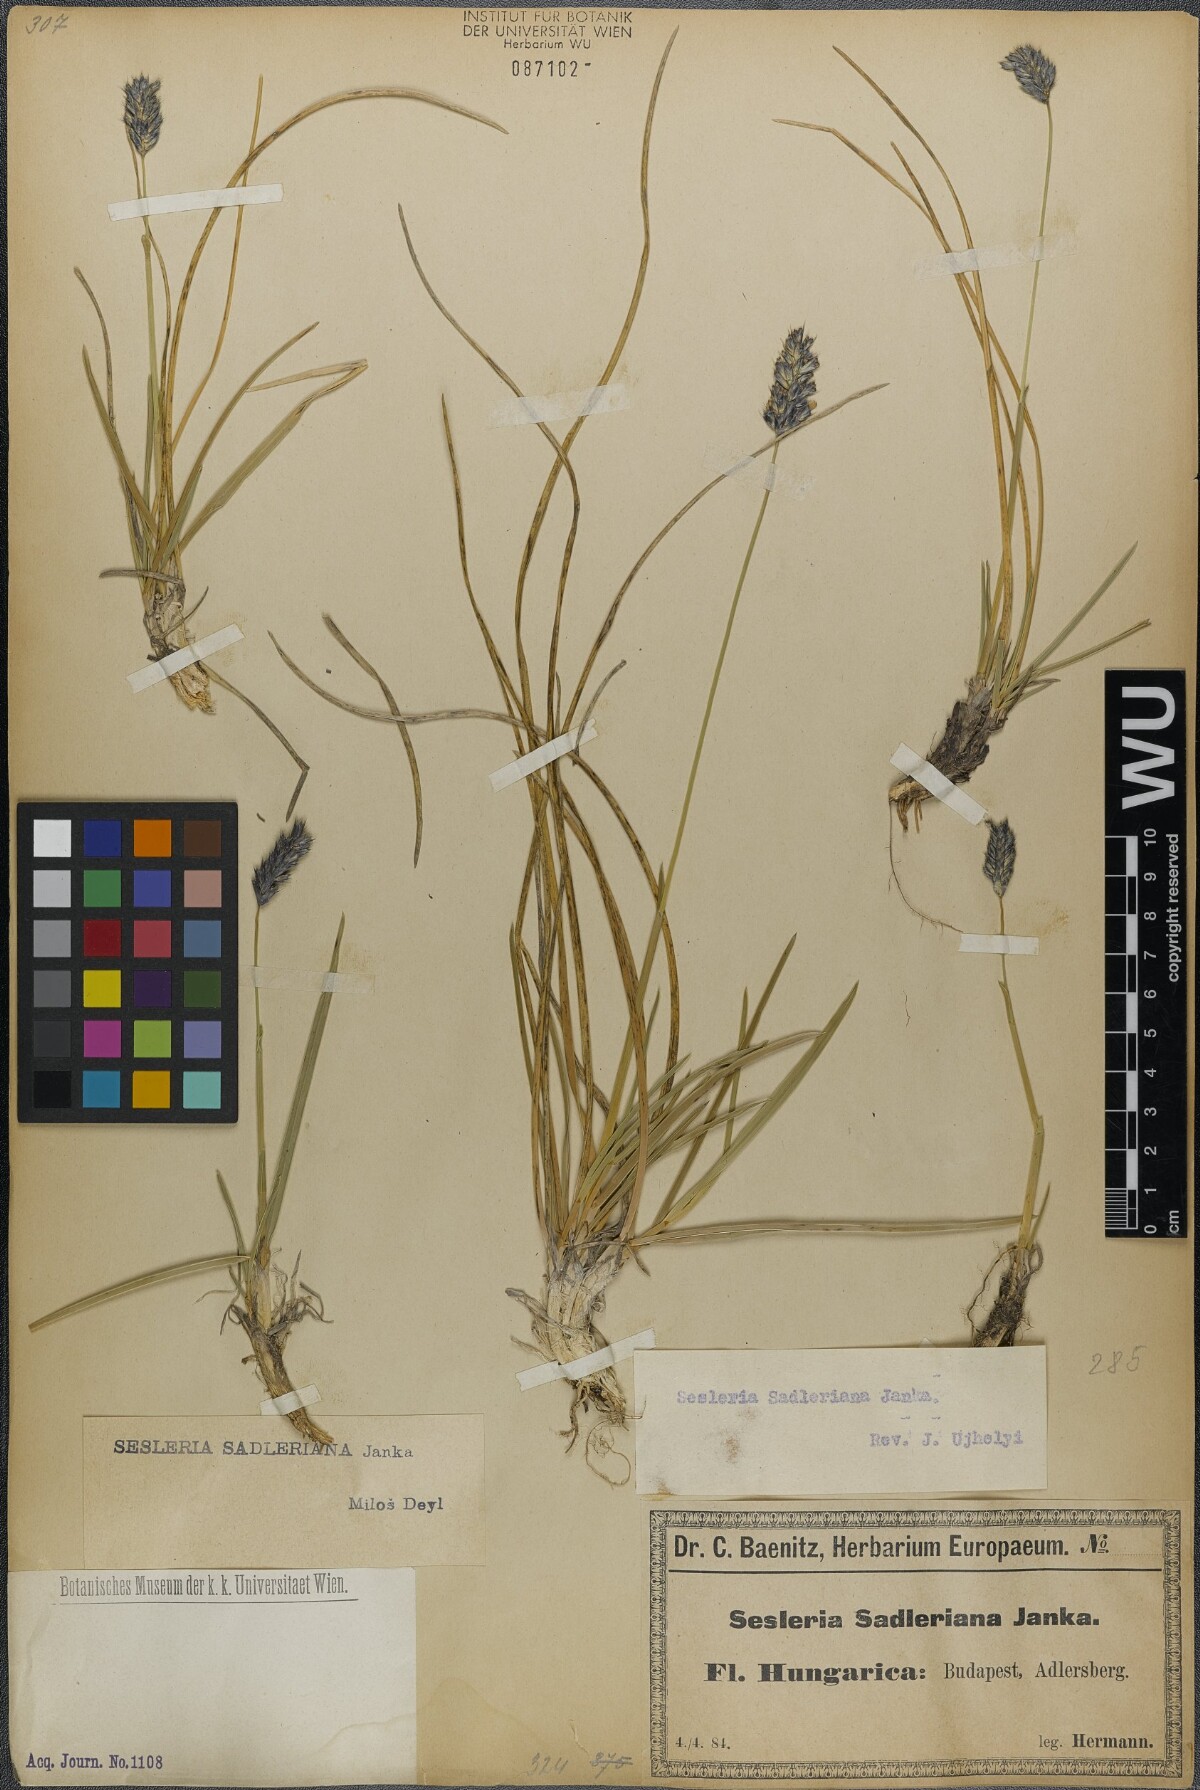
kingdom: Plantae
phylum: Tracheophyta
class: Liliopsida
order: Poales
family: Poaceae
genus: Sesleria
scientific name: Sesleria sadleriana
